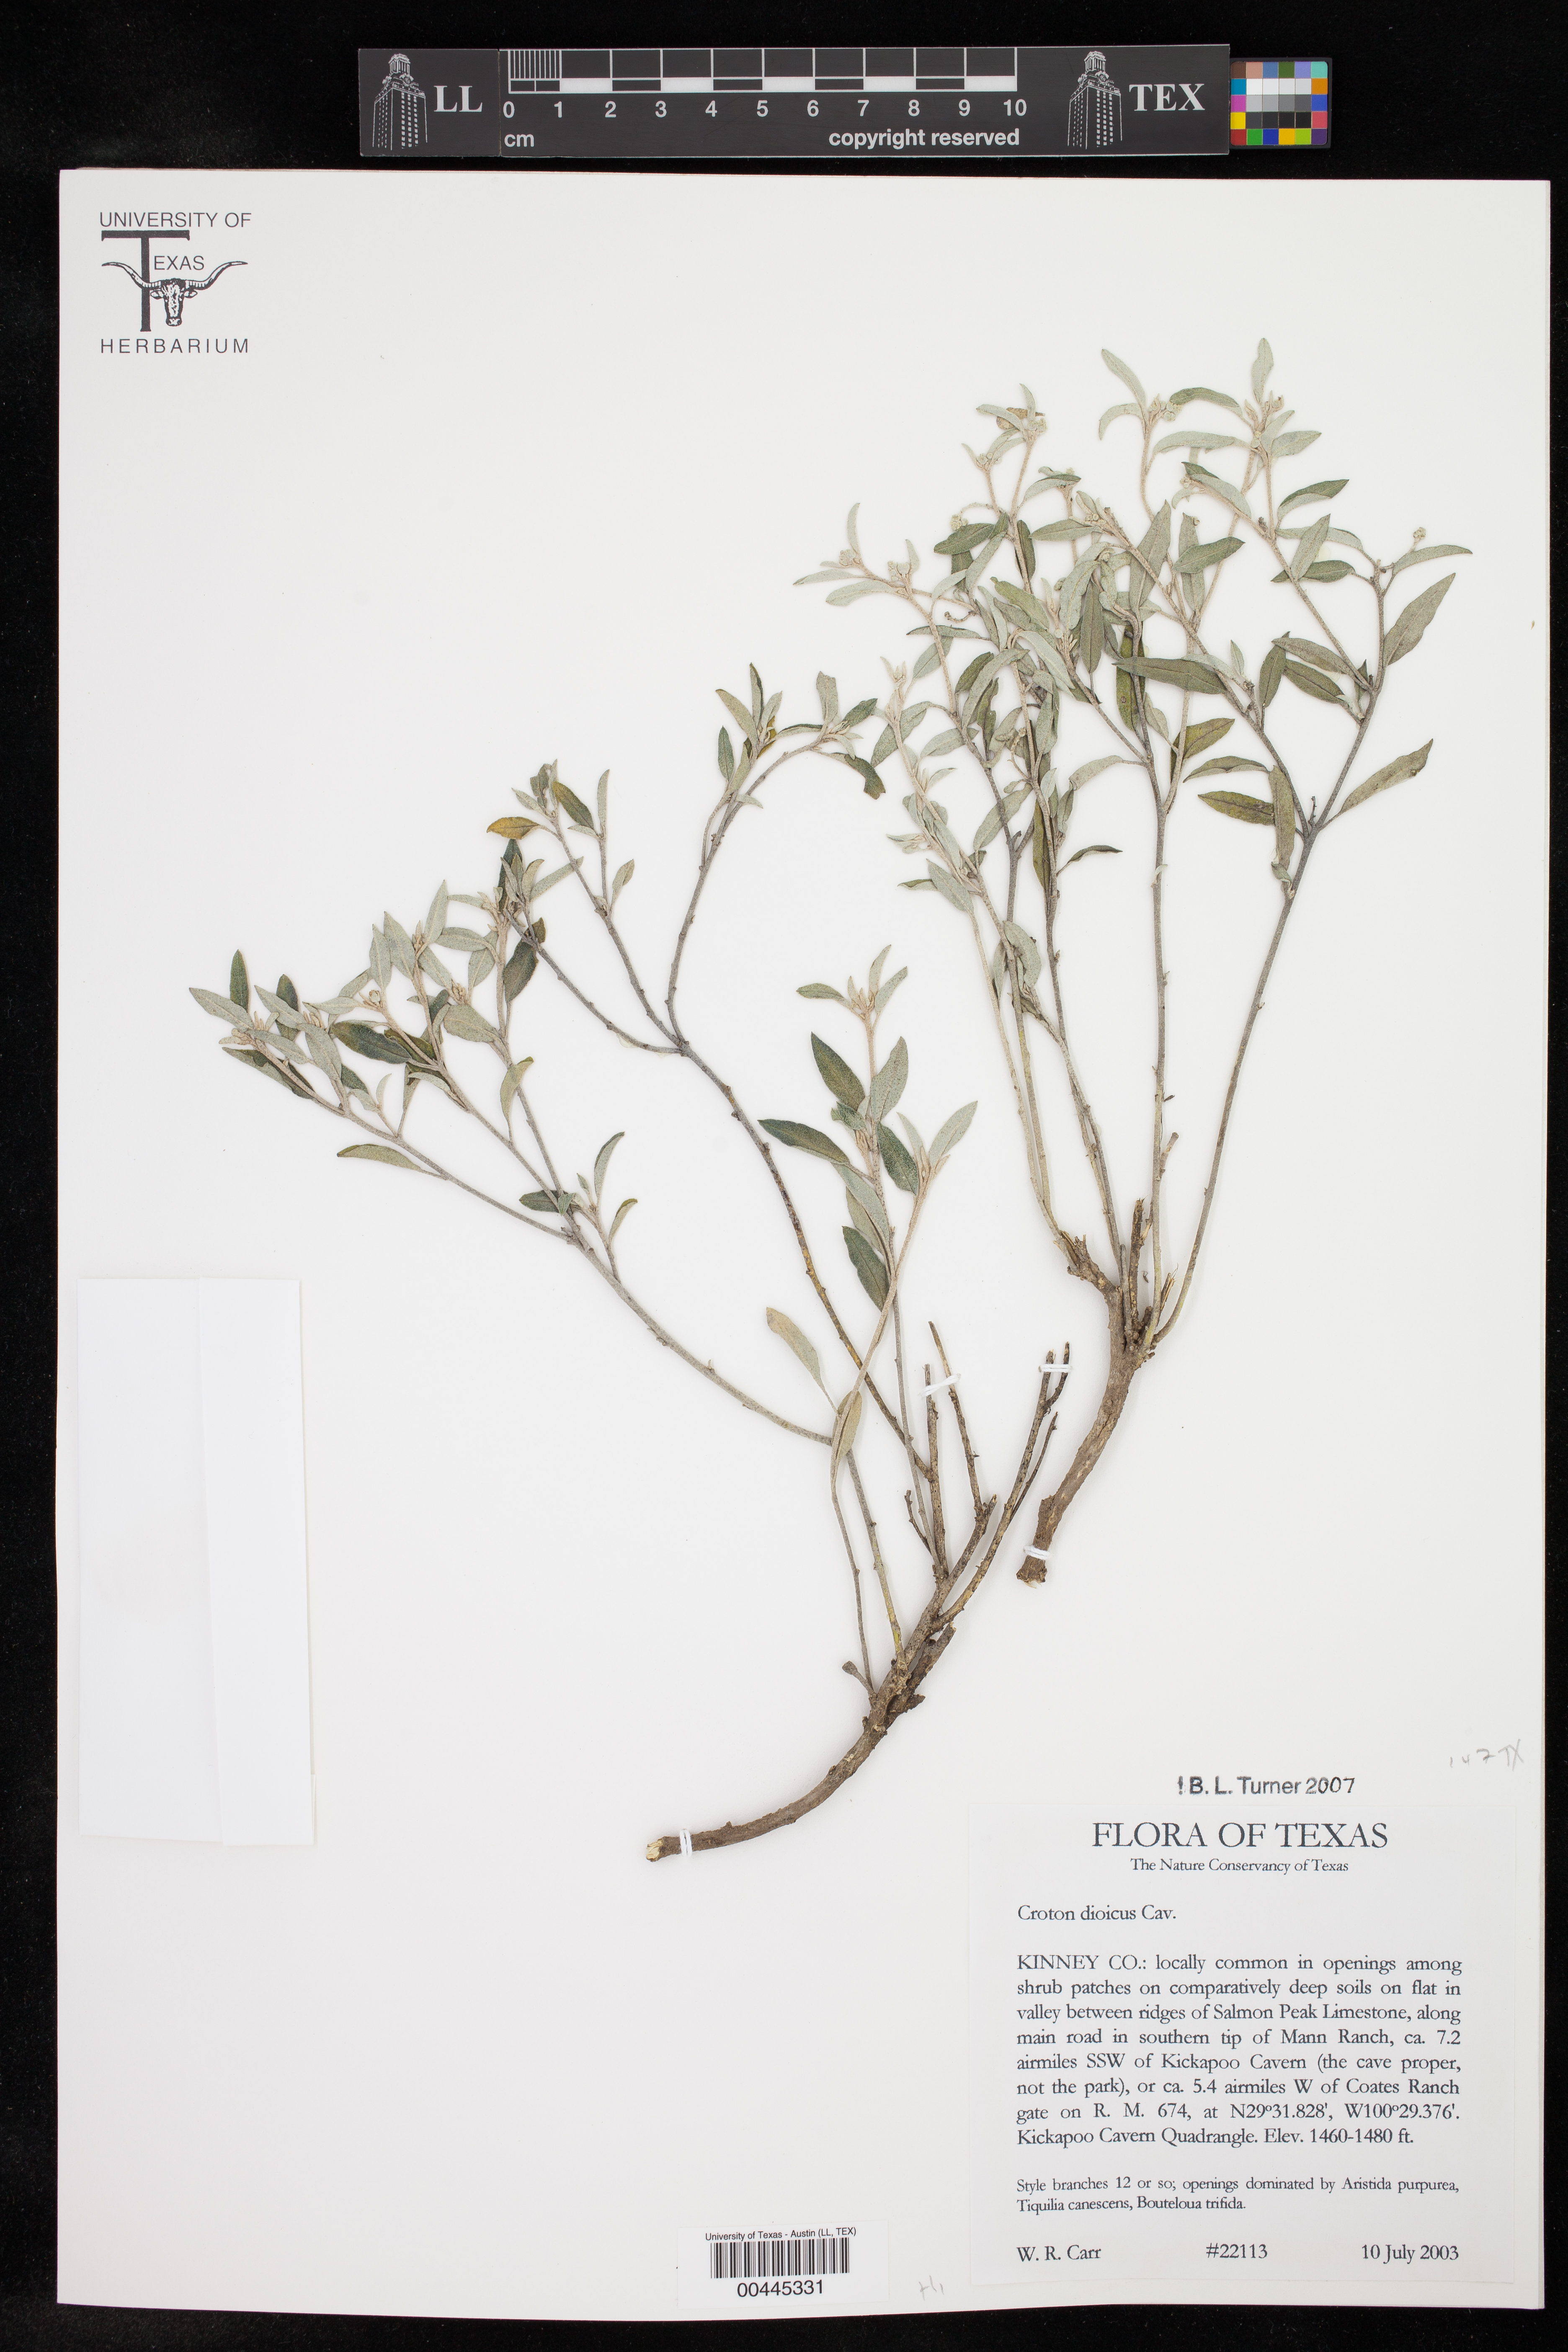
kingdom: Plantae
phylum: Tracheophyta
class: Magnoliopsida
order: Malpighiales
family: Euphorbiaceae
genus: Croton
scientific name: Croton dioicus
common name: Grassland croton
